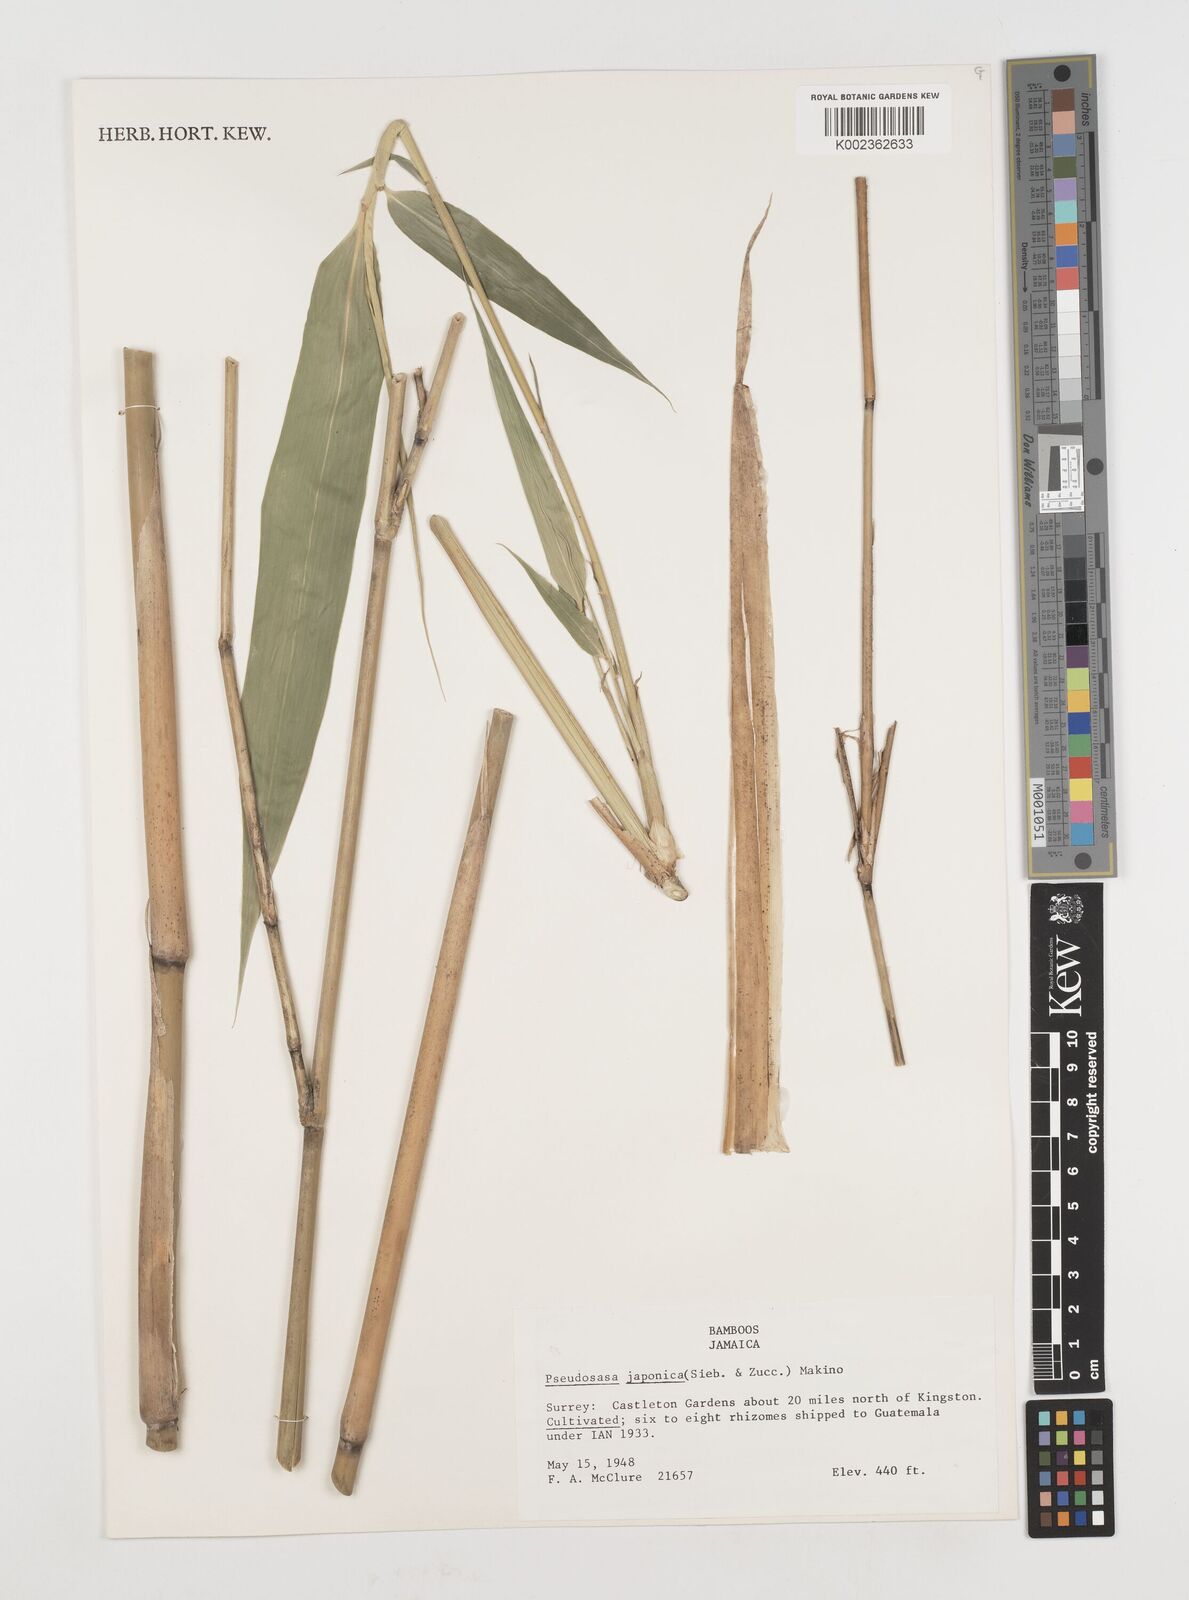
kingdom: Plantae
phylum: Tracheophyta
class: Liliopsida
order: Poales
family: Poaceae
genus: Pseudosasa
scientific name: Pseudosasa japonica
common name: Arrow bamboo
